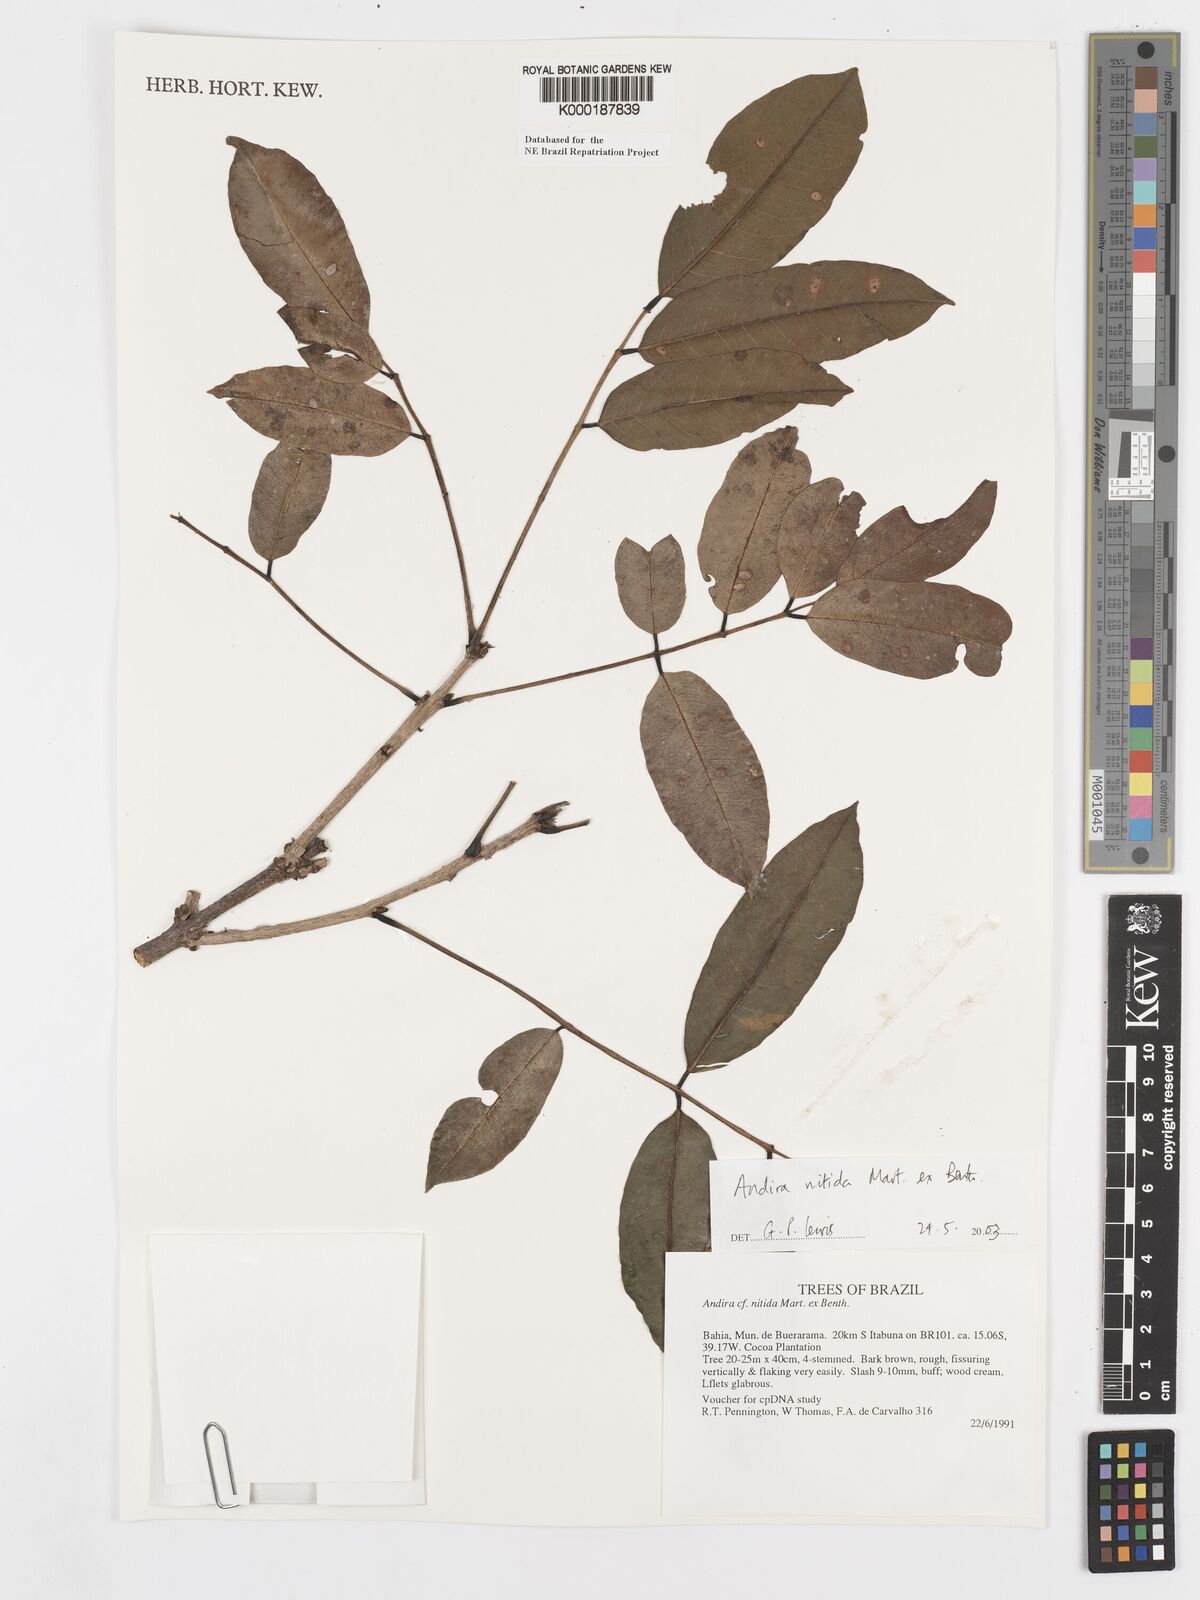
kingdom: Plantae
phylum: Tracheophyta
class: Magnoliopsida
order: Fabales
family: Fabaceae
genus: Andira
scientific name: Andira nitida
